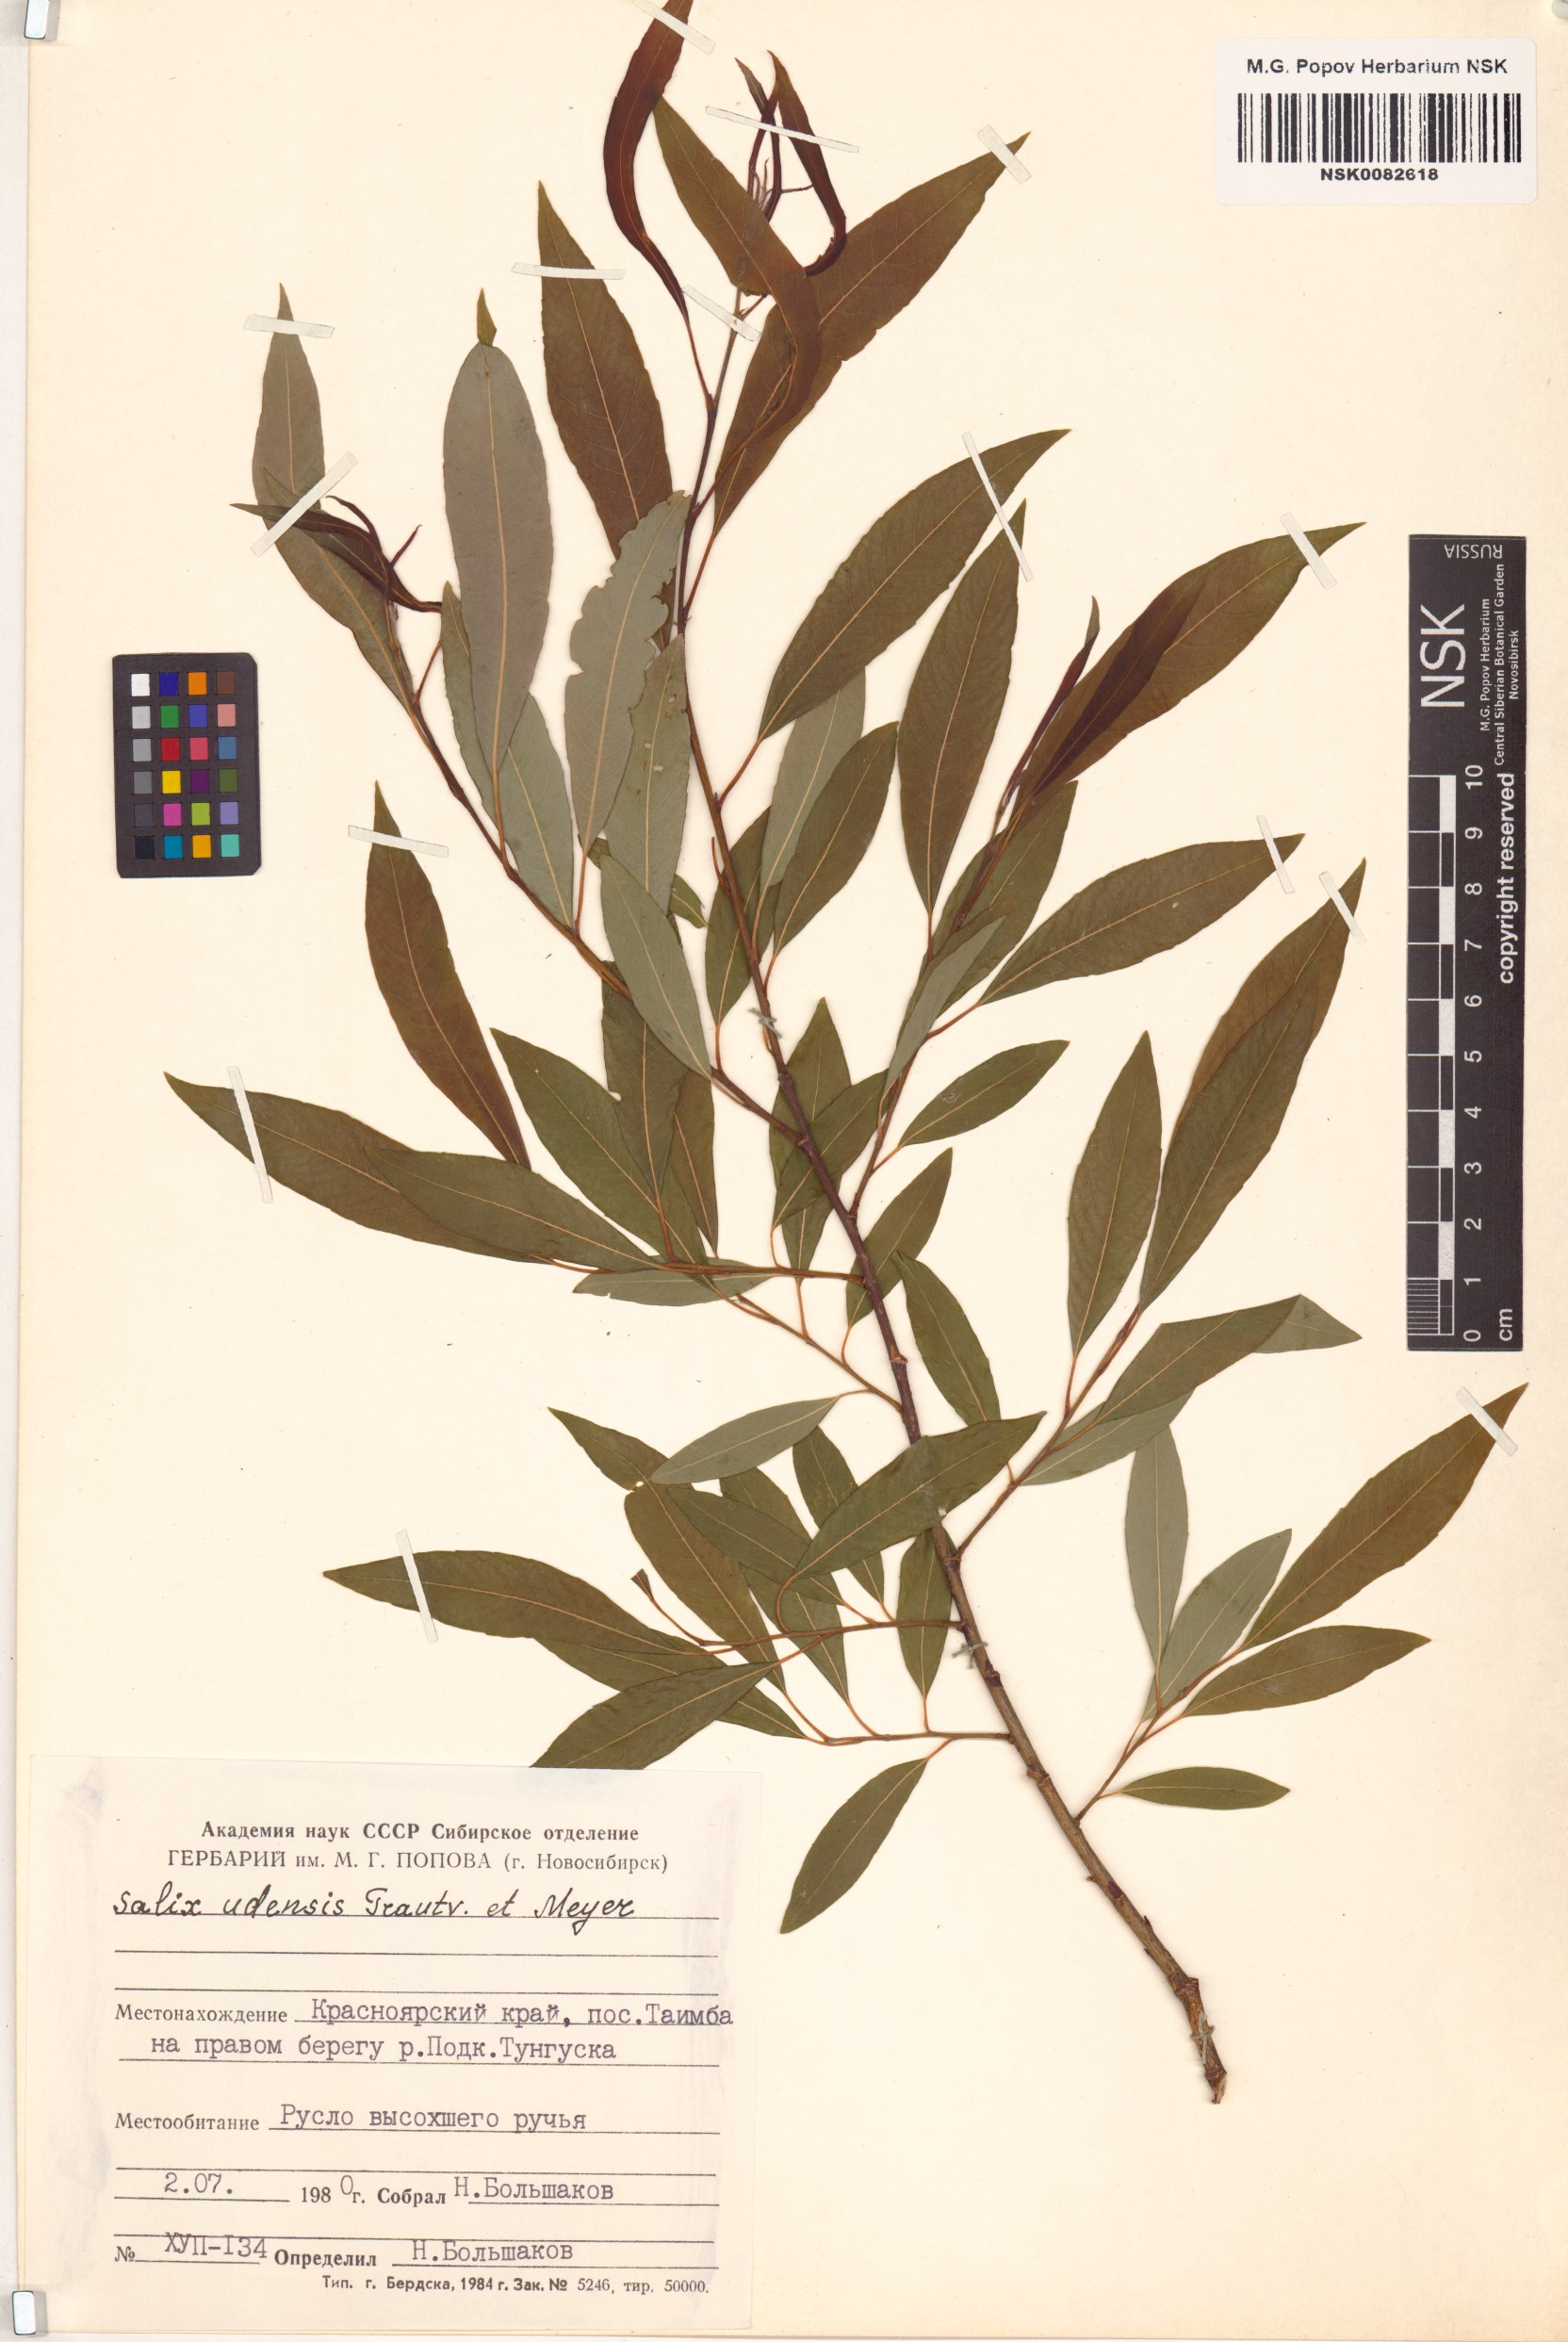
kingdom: Plantae
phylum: Tracheophyta
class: Magnoliopsida
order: Malpighiales
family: Salicaceae
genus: Salix
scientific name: Salix udensis
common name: Sachalin willow
